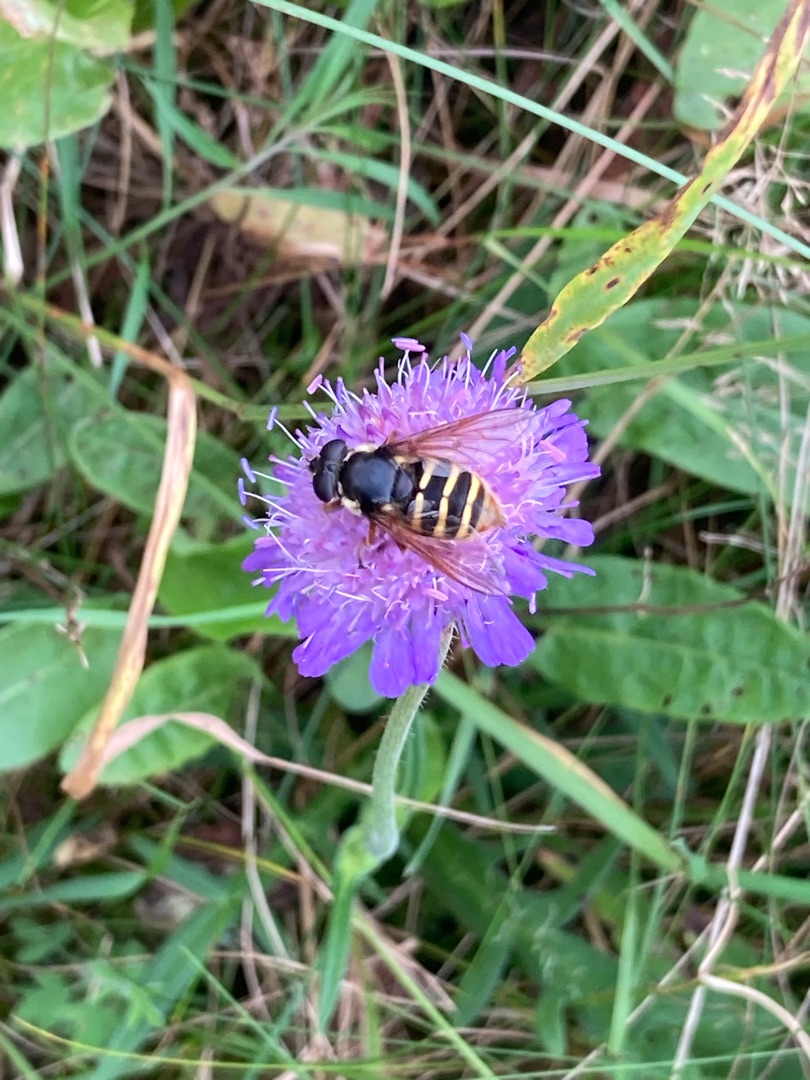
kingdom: Animalia
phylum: Arthropoda
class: Insecta
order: Diptera
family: Syrphidae
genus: Sericomyia
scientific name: Sericomyia silentis
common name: Tørve-silkesvirreflue
